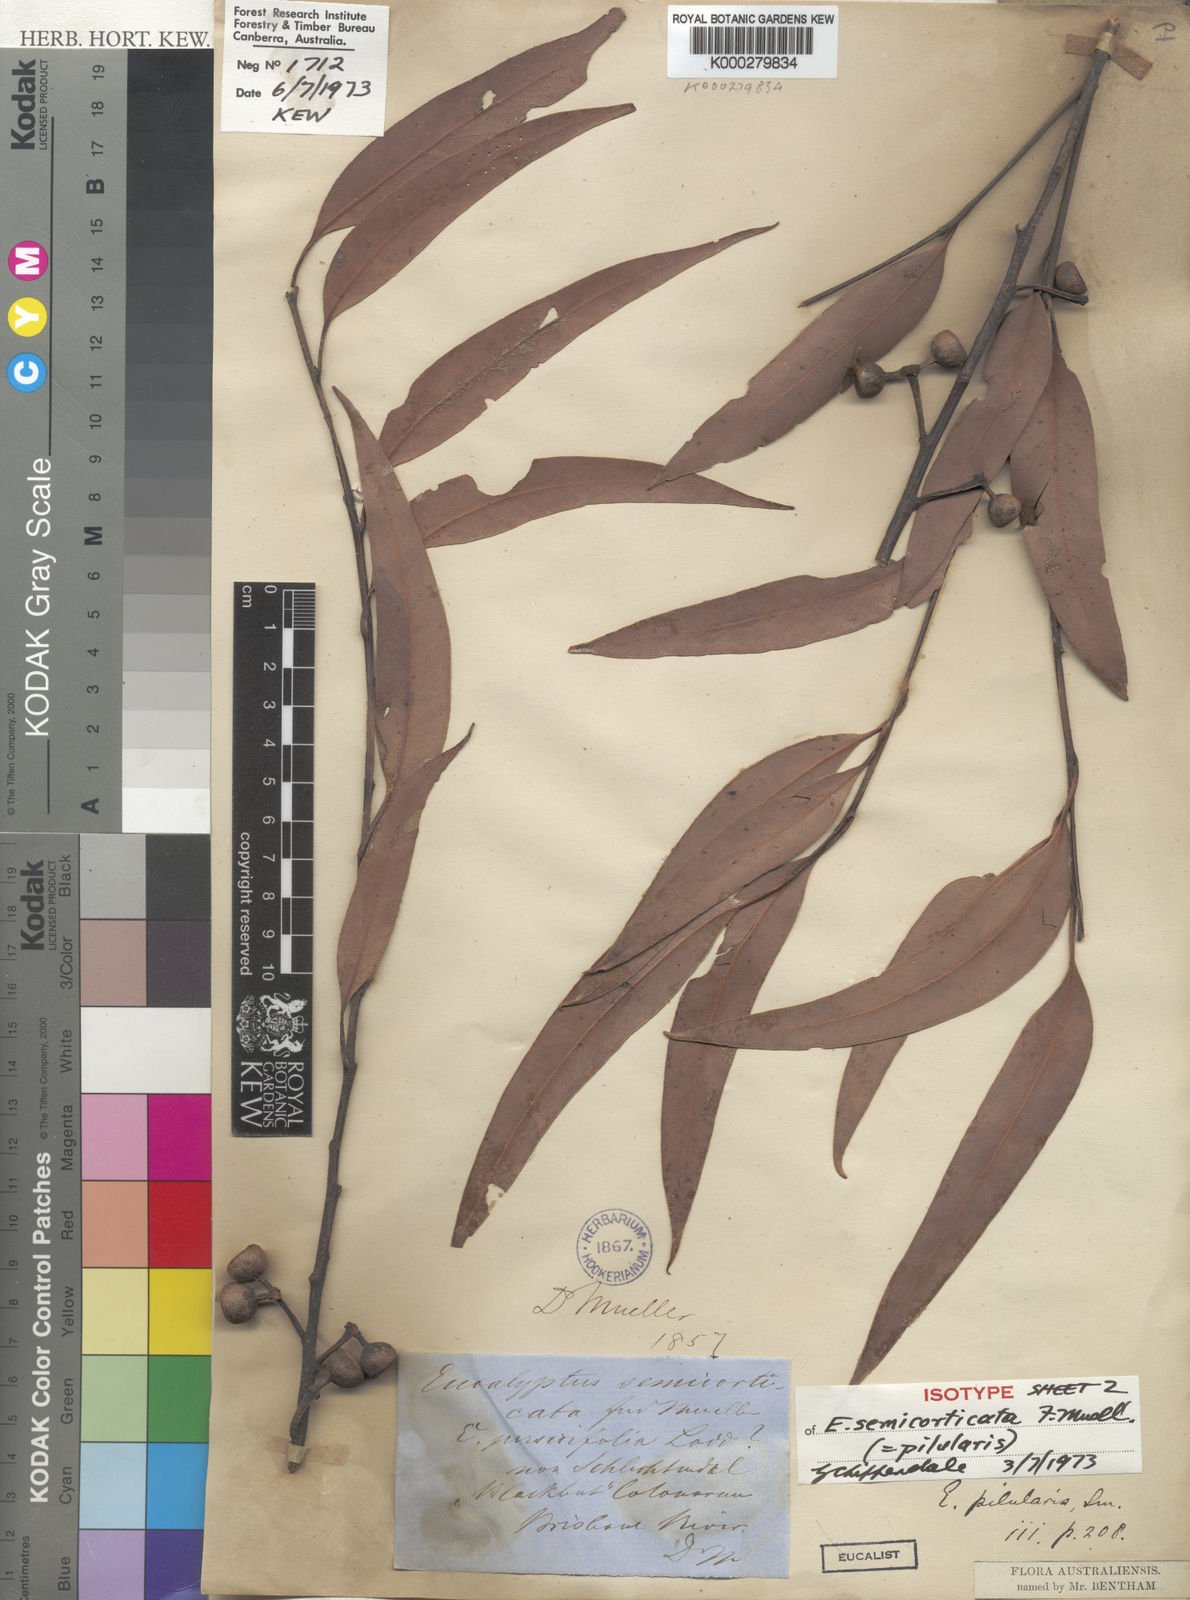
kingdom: Plantae
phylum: Tracheophyta
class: Magnoliopsida
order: Myrtales
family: Myrtaceae
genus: Eucalyptus
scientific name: Eucalyptus pilularis
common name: Blackbutt
